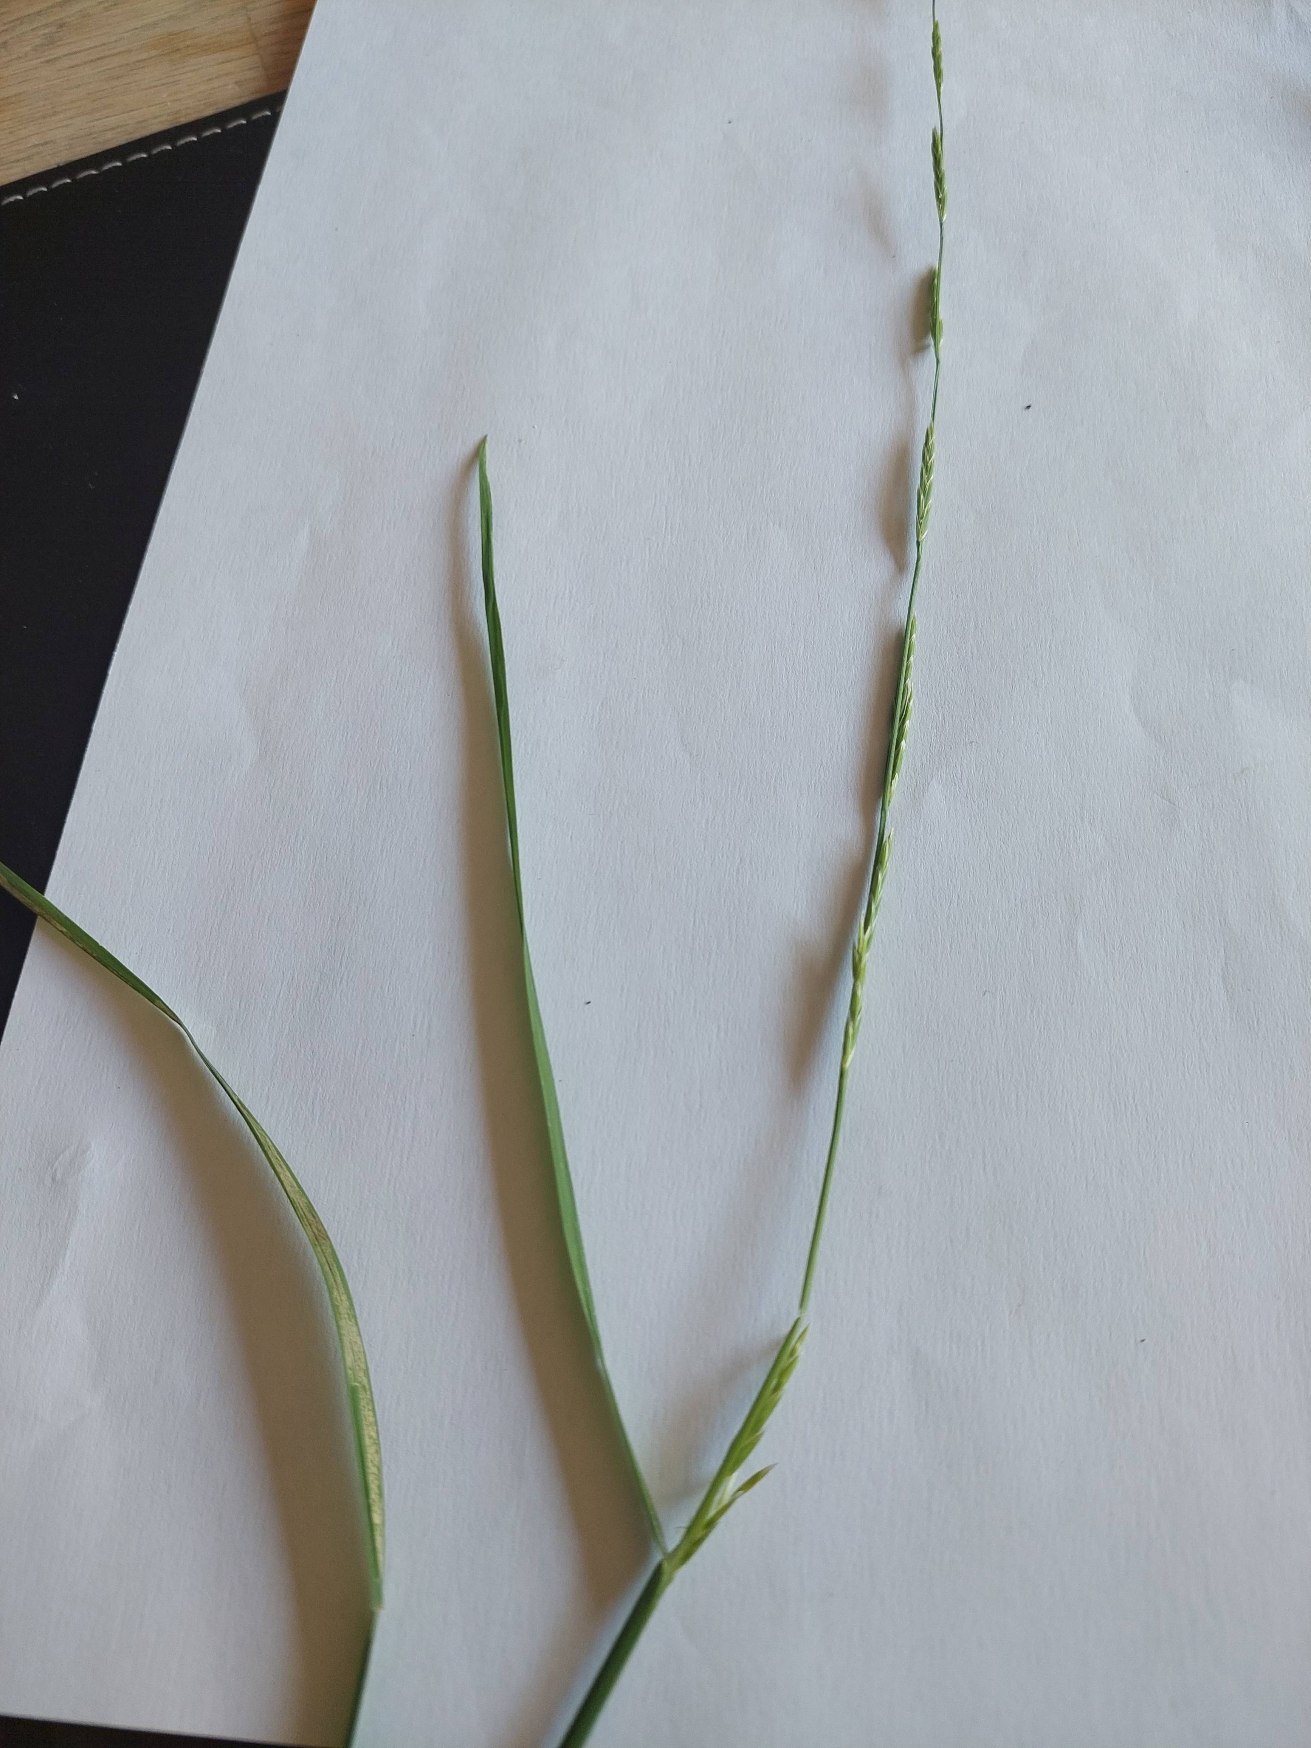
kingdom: Plantae
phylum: Tracheophyta
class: Liliopsida
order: Poales
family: Poaceae
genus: Glyceria
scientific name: Glyceria fluitans
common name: Manna-sødgræs
